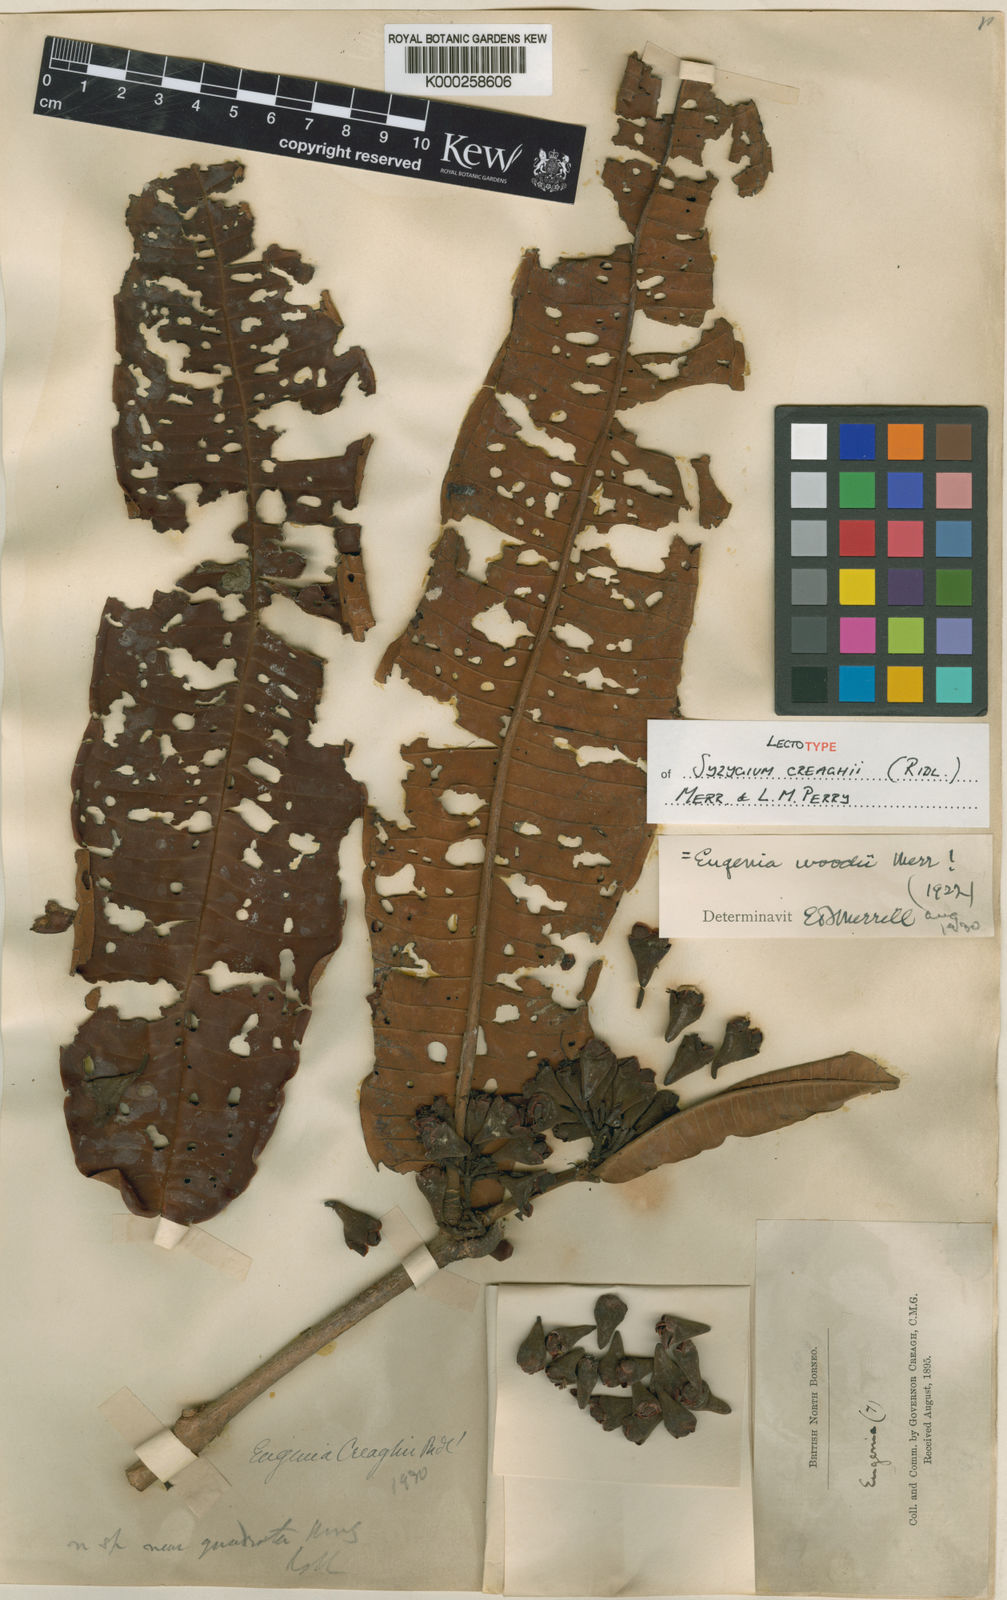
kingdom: Plantae
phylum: Tracheophyta
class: Magnoliopsida
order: Myrtales
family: Myrtaceae
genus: Syzygium
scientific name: Syzygium creaghii
